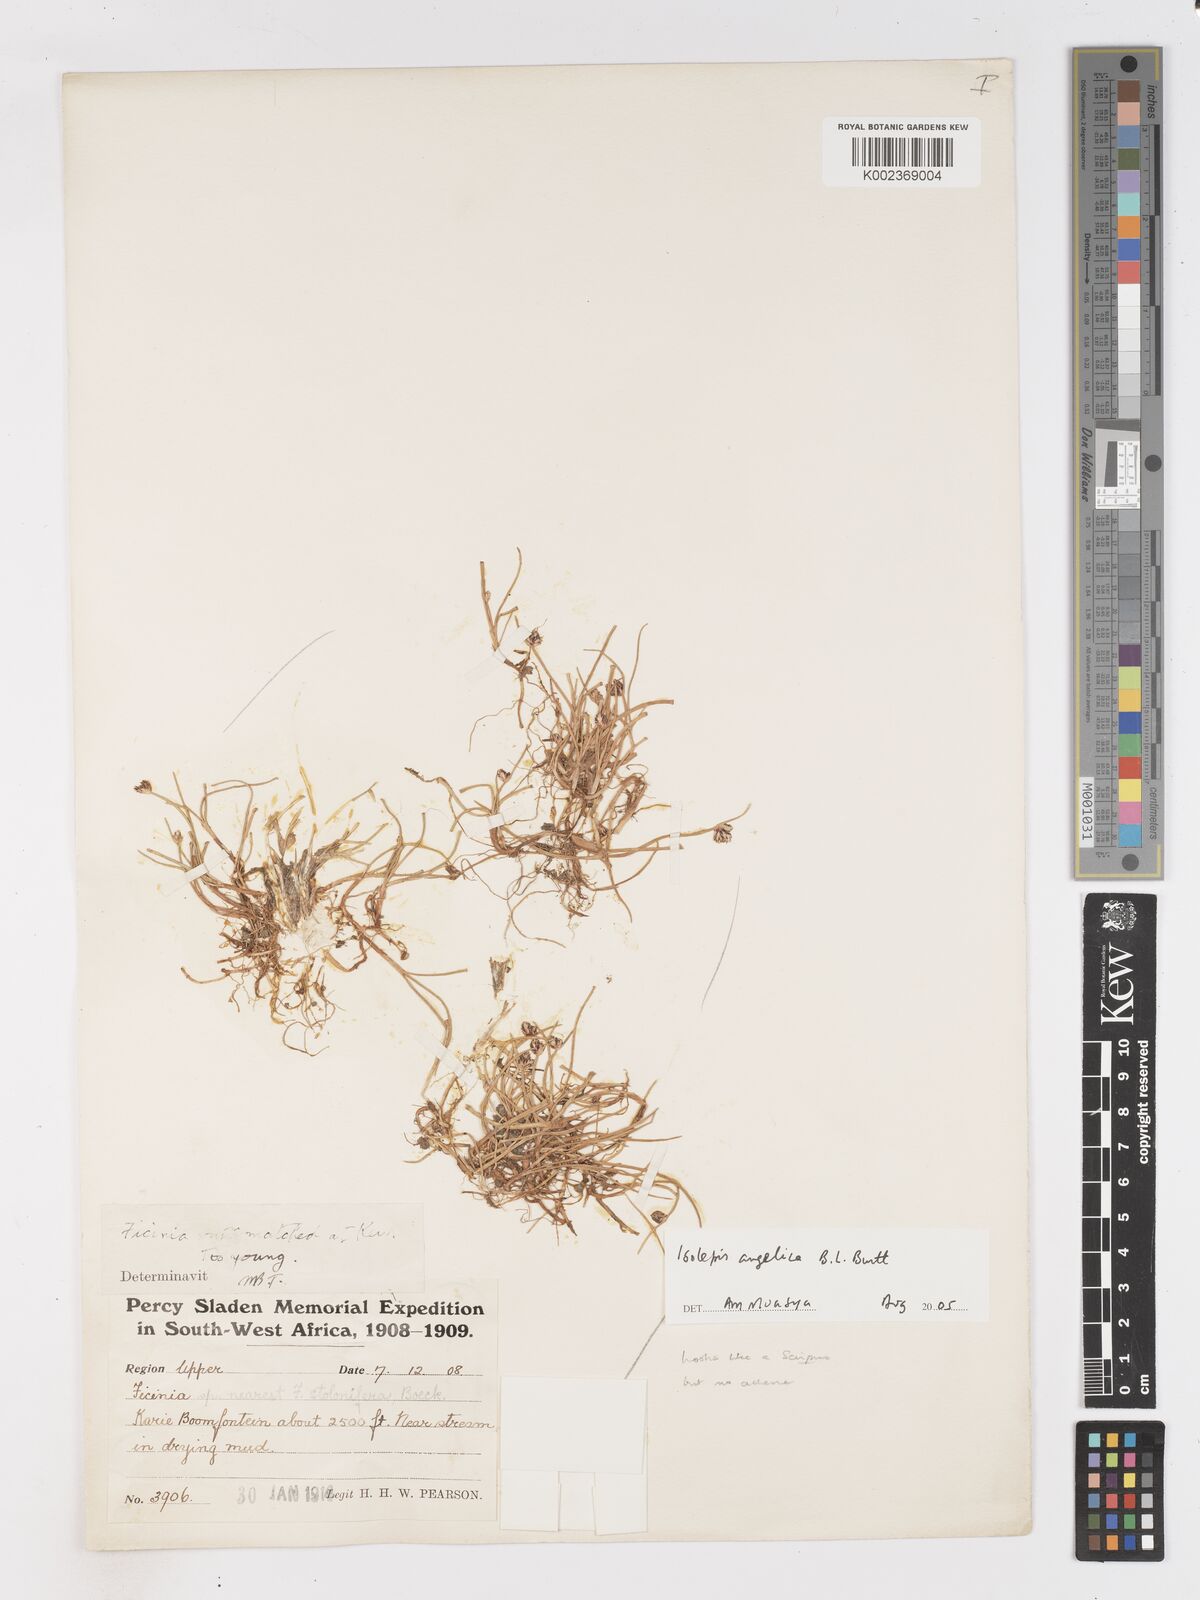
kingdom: Plantae
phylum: Tracheophyta
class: Liliopsida
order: Poales
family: Cyperaceae
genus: Isolepis
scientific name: Isolepis angelica
